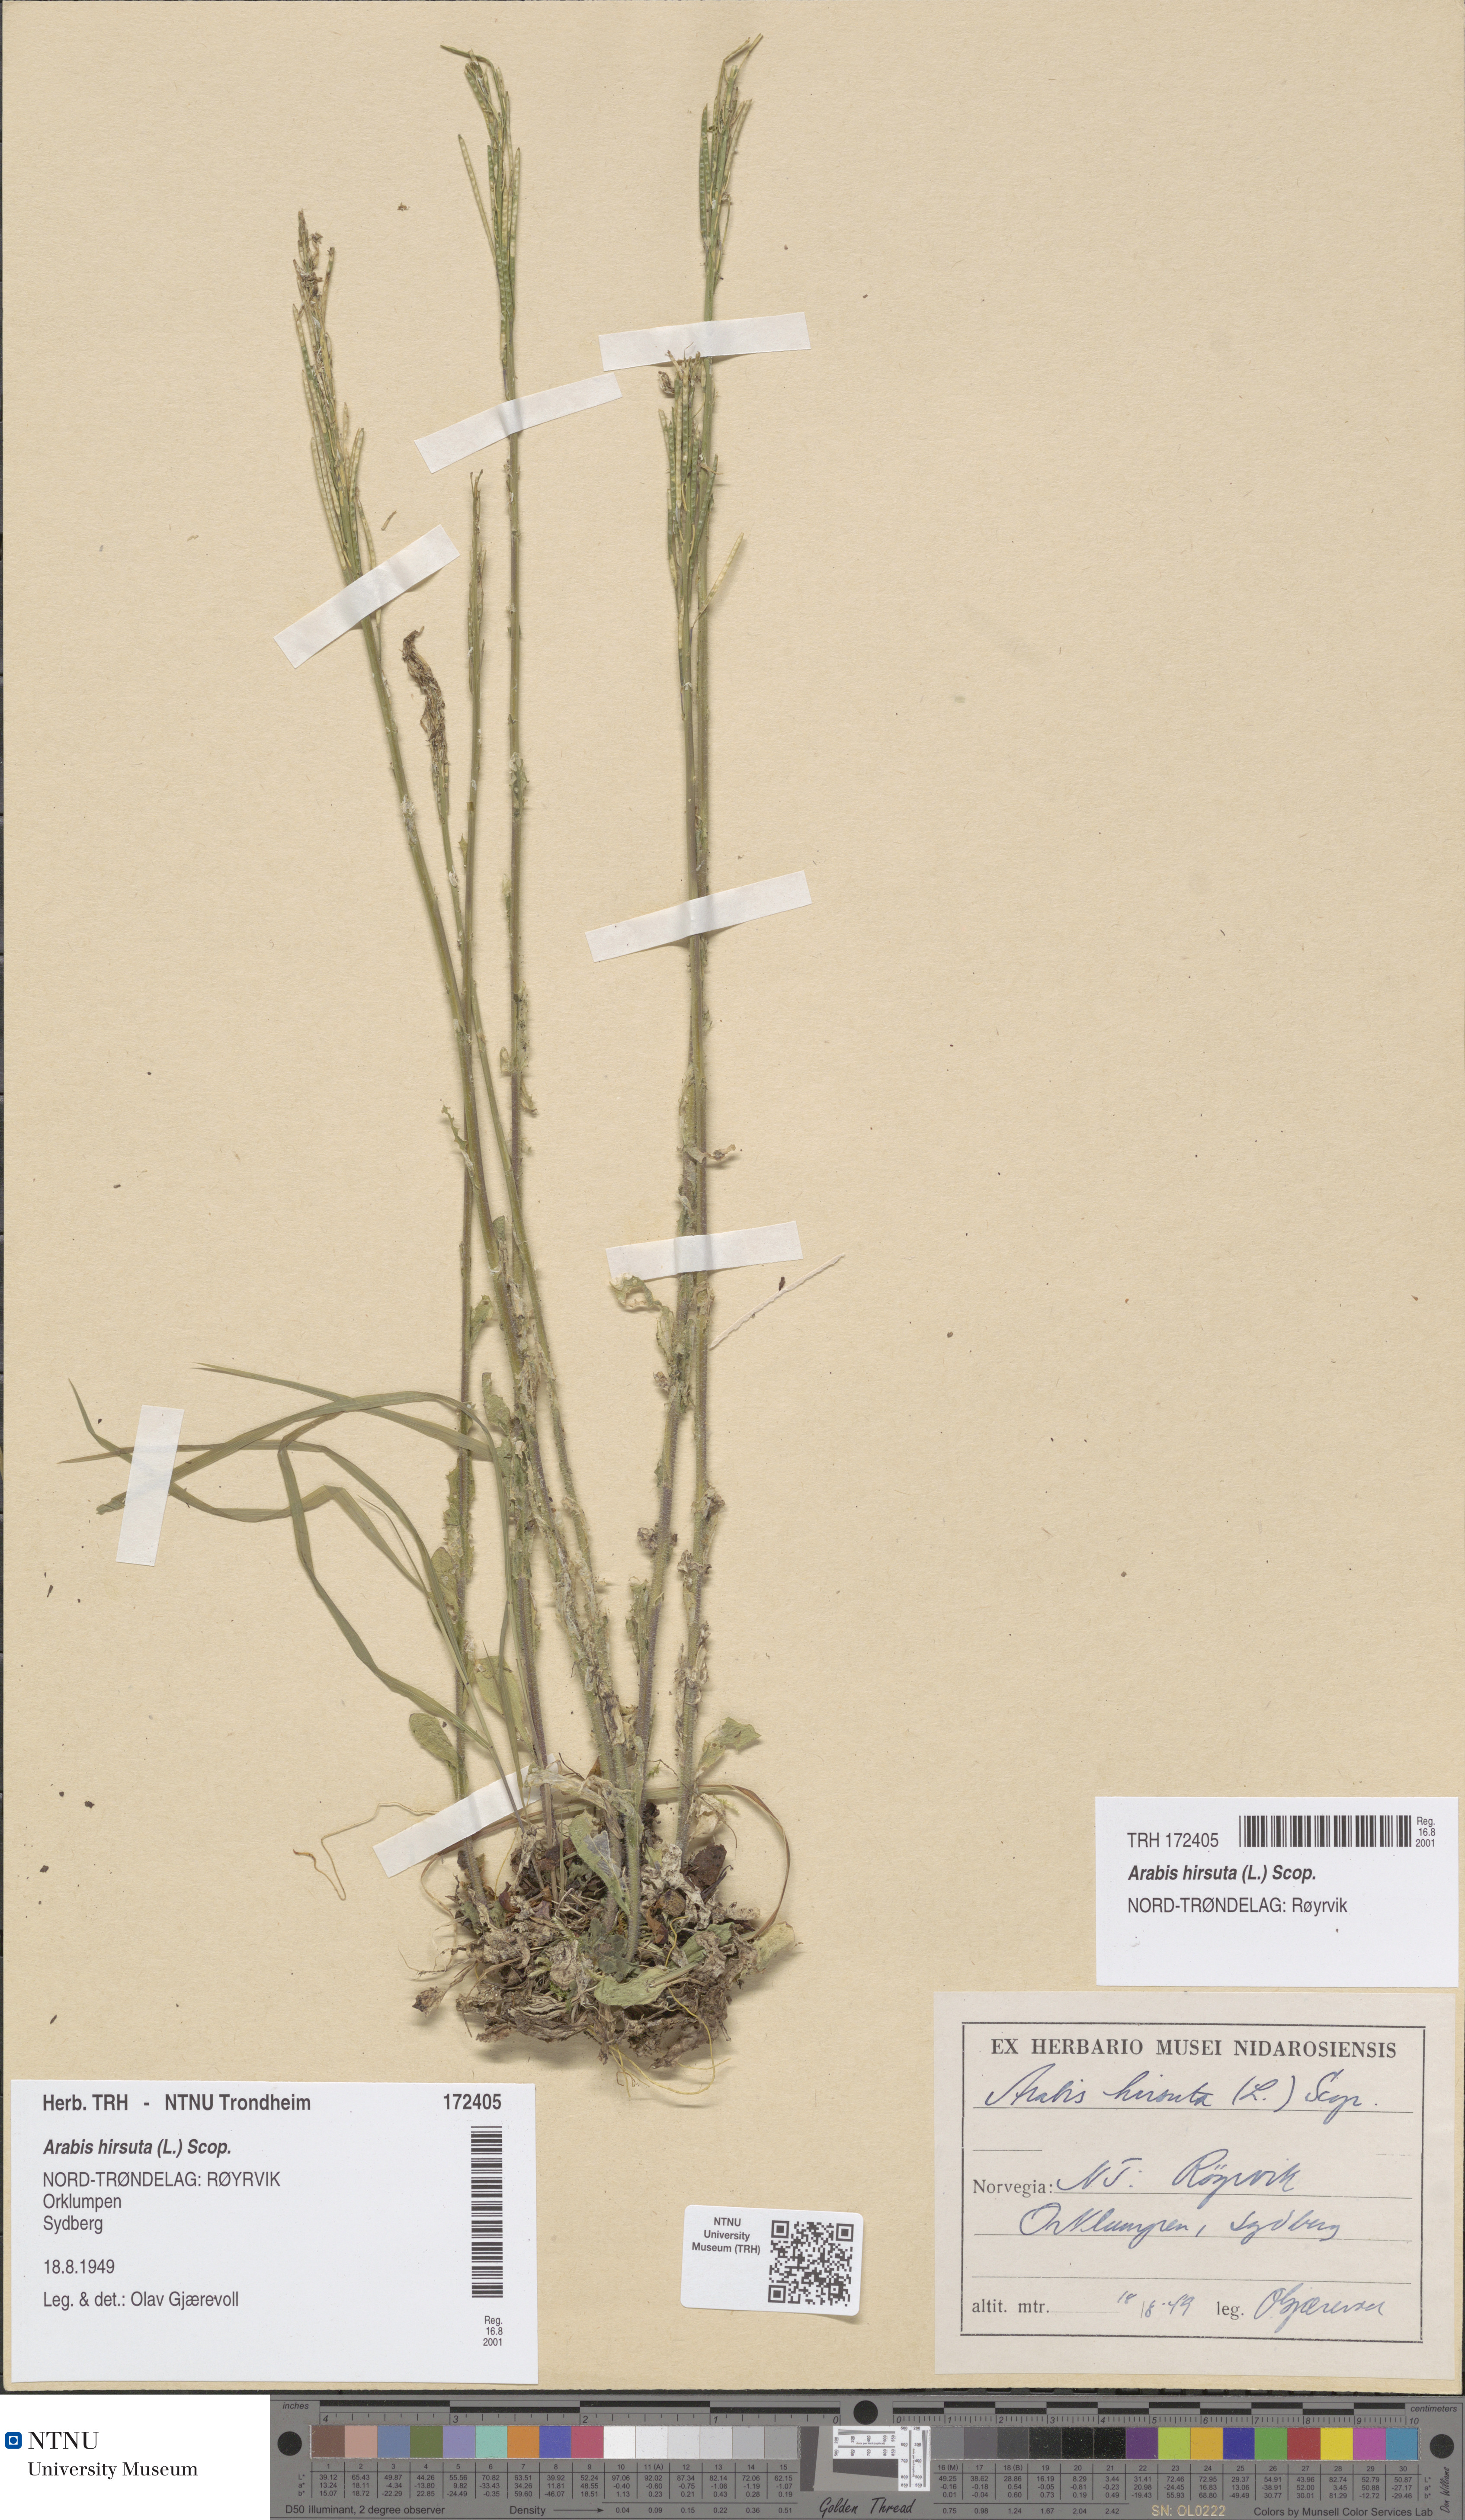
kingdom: Plantae
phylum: Tracheophyta
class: Magnoliopsida
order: Brassicales
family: Brassicaceae
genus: Arabis
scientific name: Arabis hirsuta
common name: Hairy rock-cress
